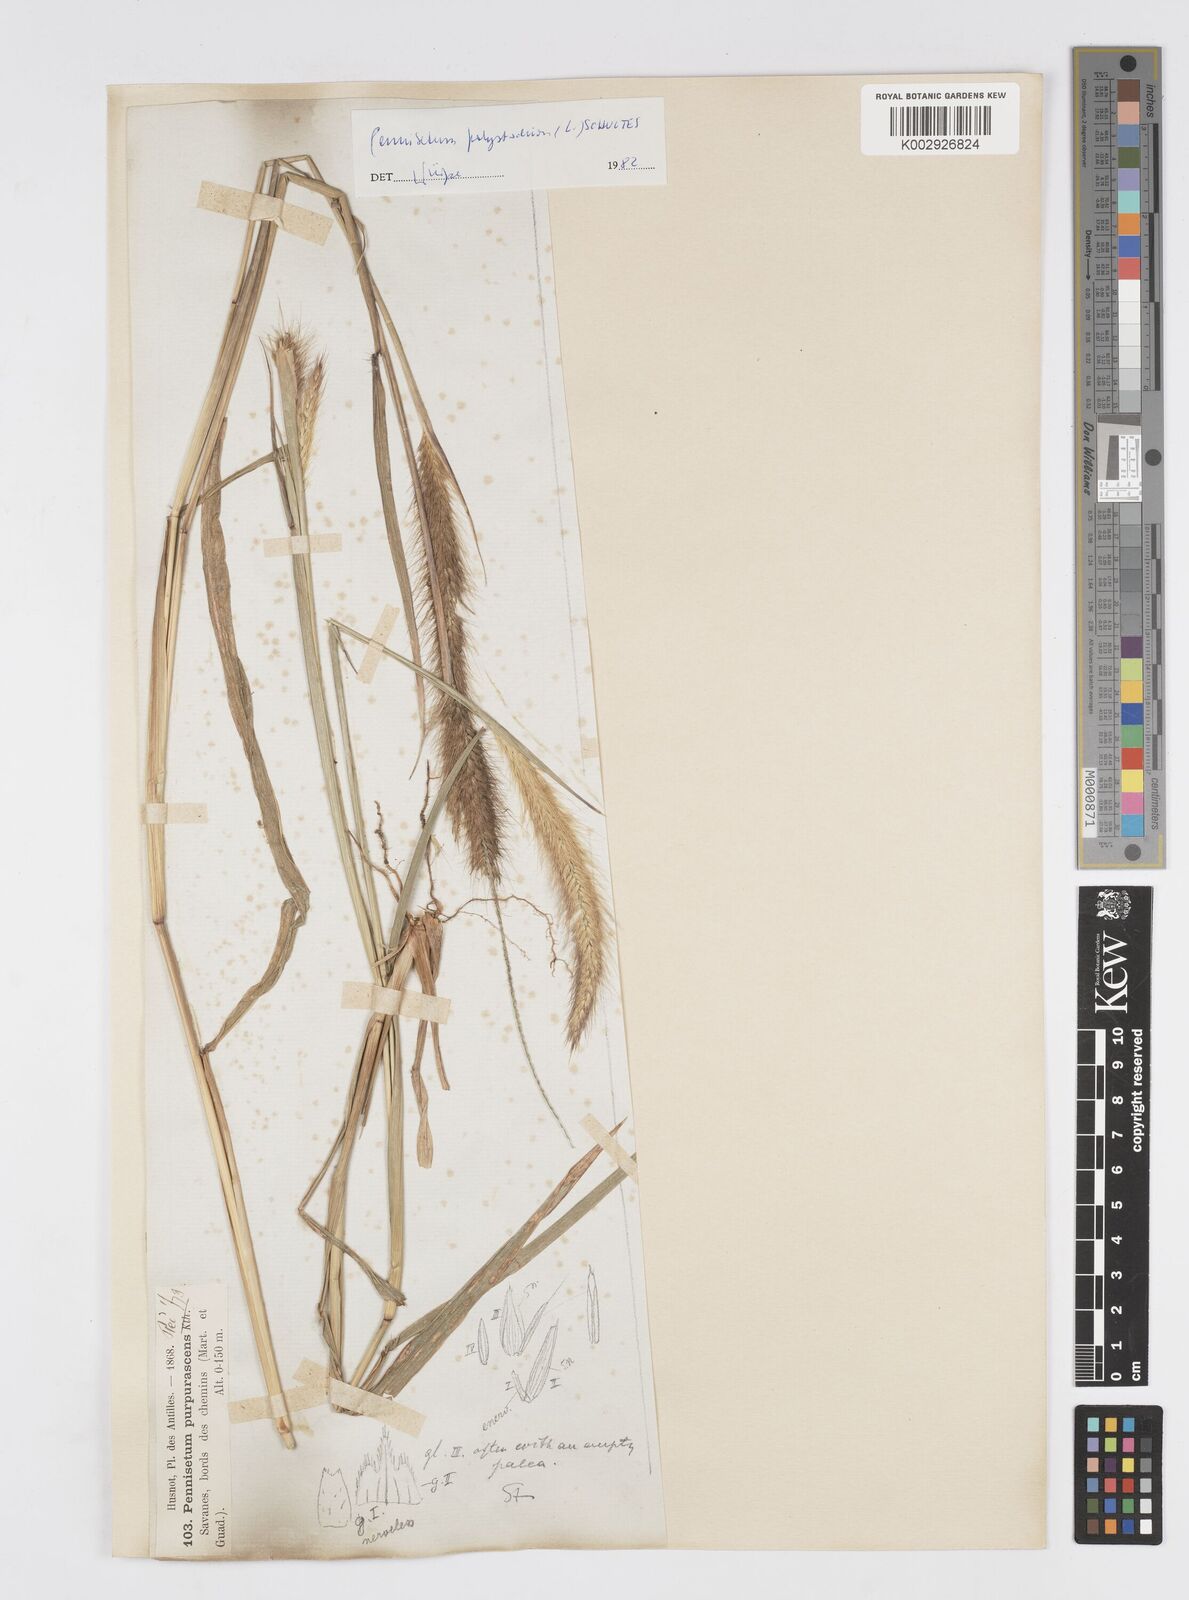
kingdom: Plantae
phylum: Tracheophyta
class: Liliopsida
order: Poales
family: Poaceae
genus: Cenchrus
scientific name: Cenchrus setosus
